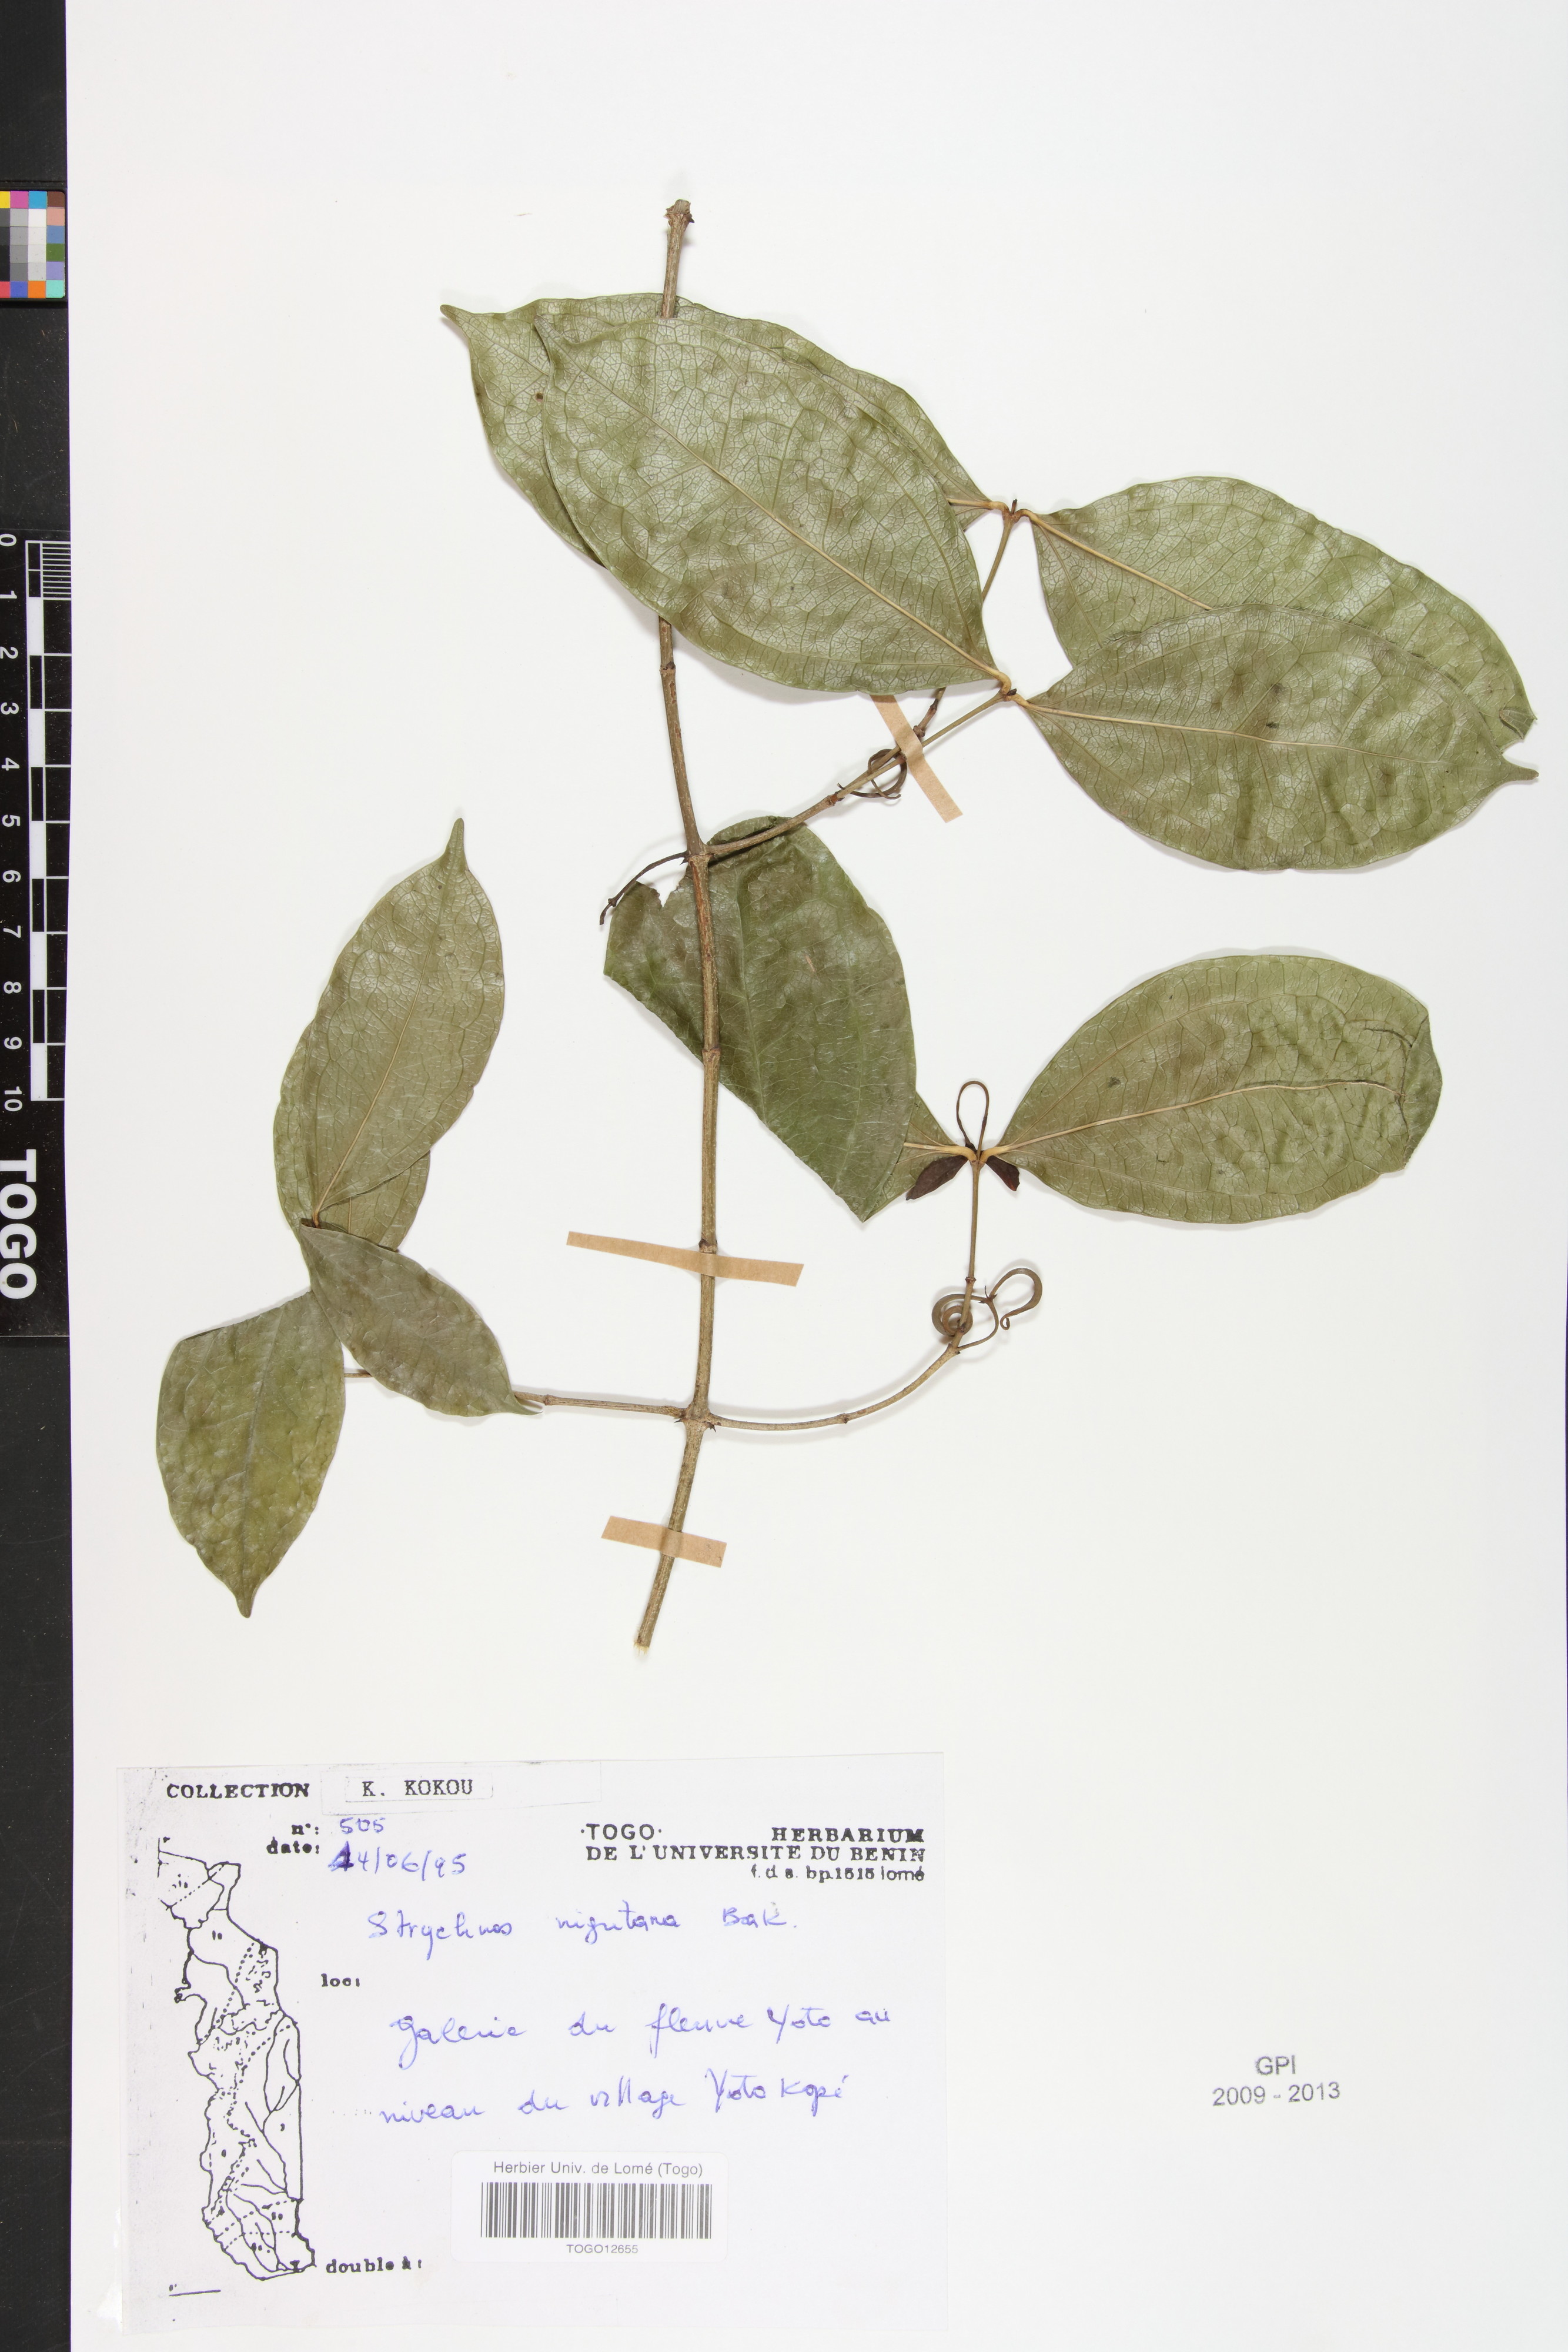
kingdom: Plantae
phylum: Tracheophyta
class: Magnoliopsida
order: Gentianales
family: Loganiaceae
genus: Strychnos
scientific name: Strychnos nigritana
